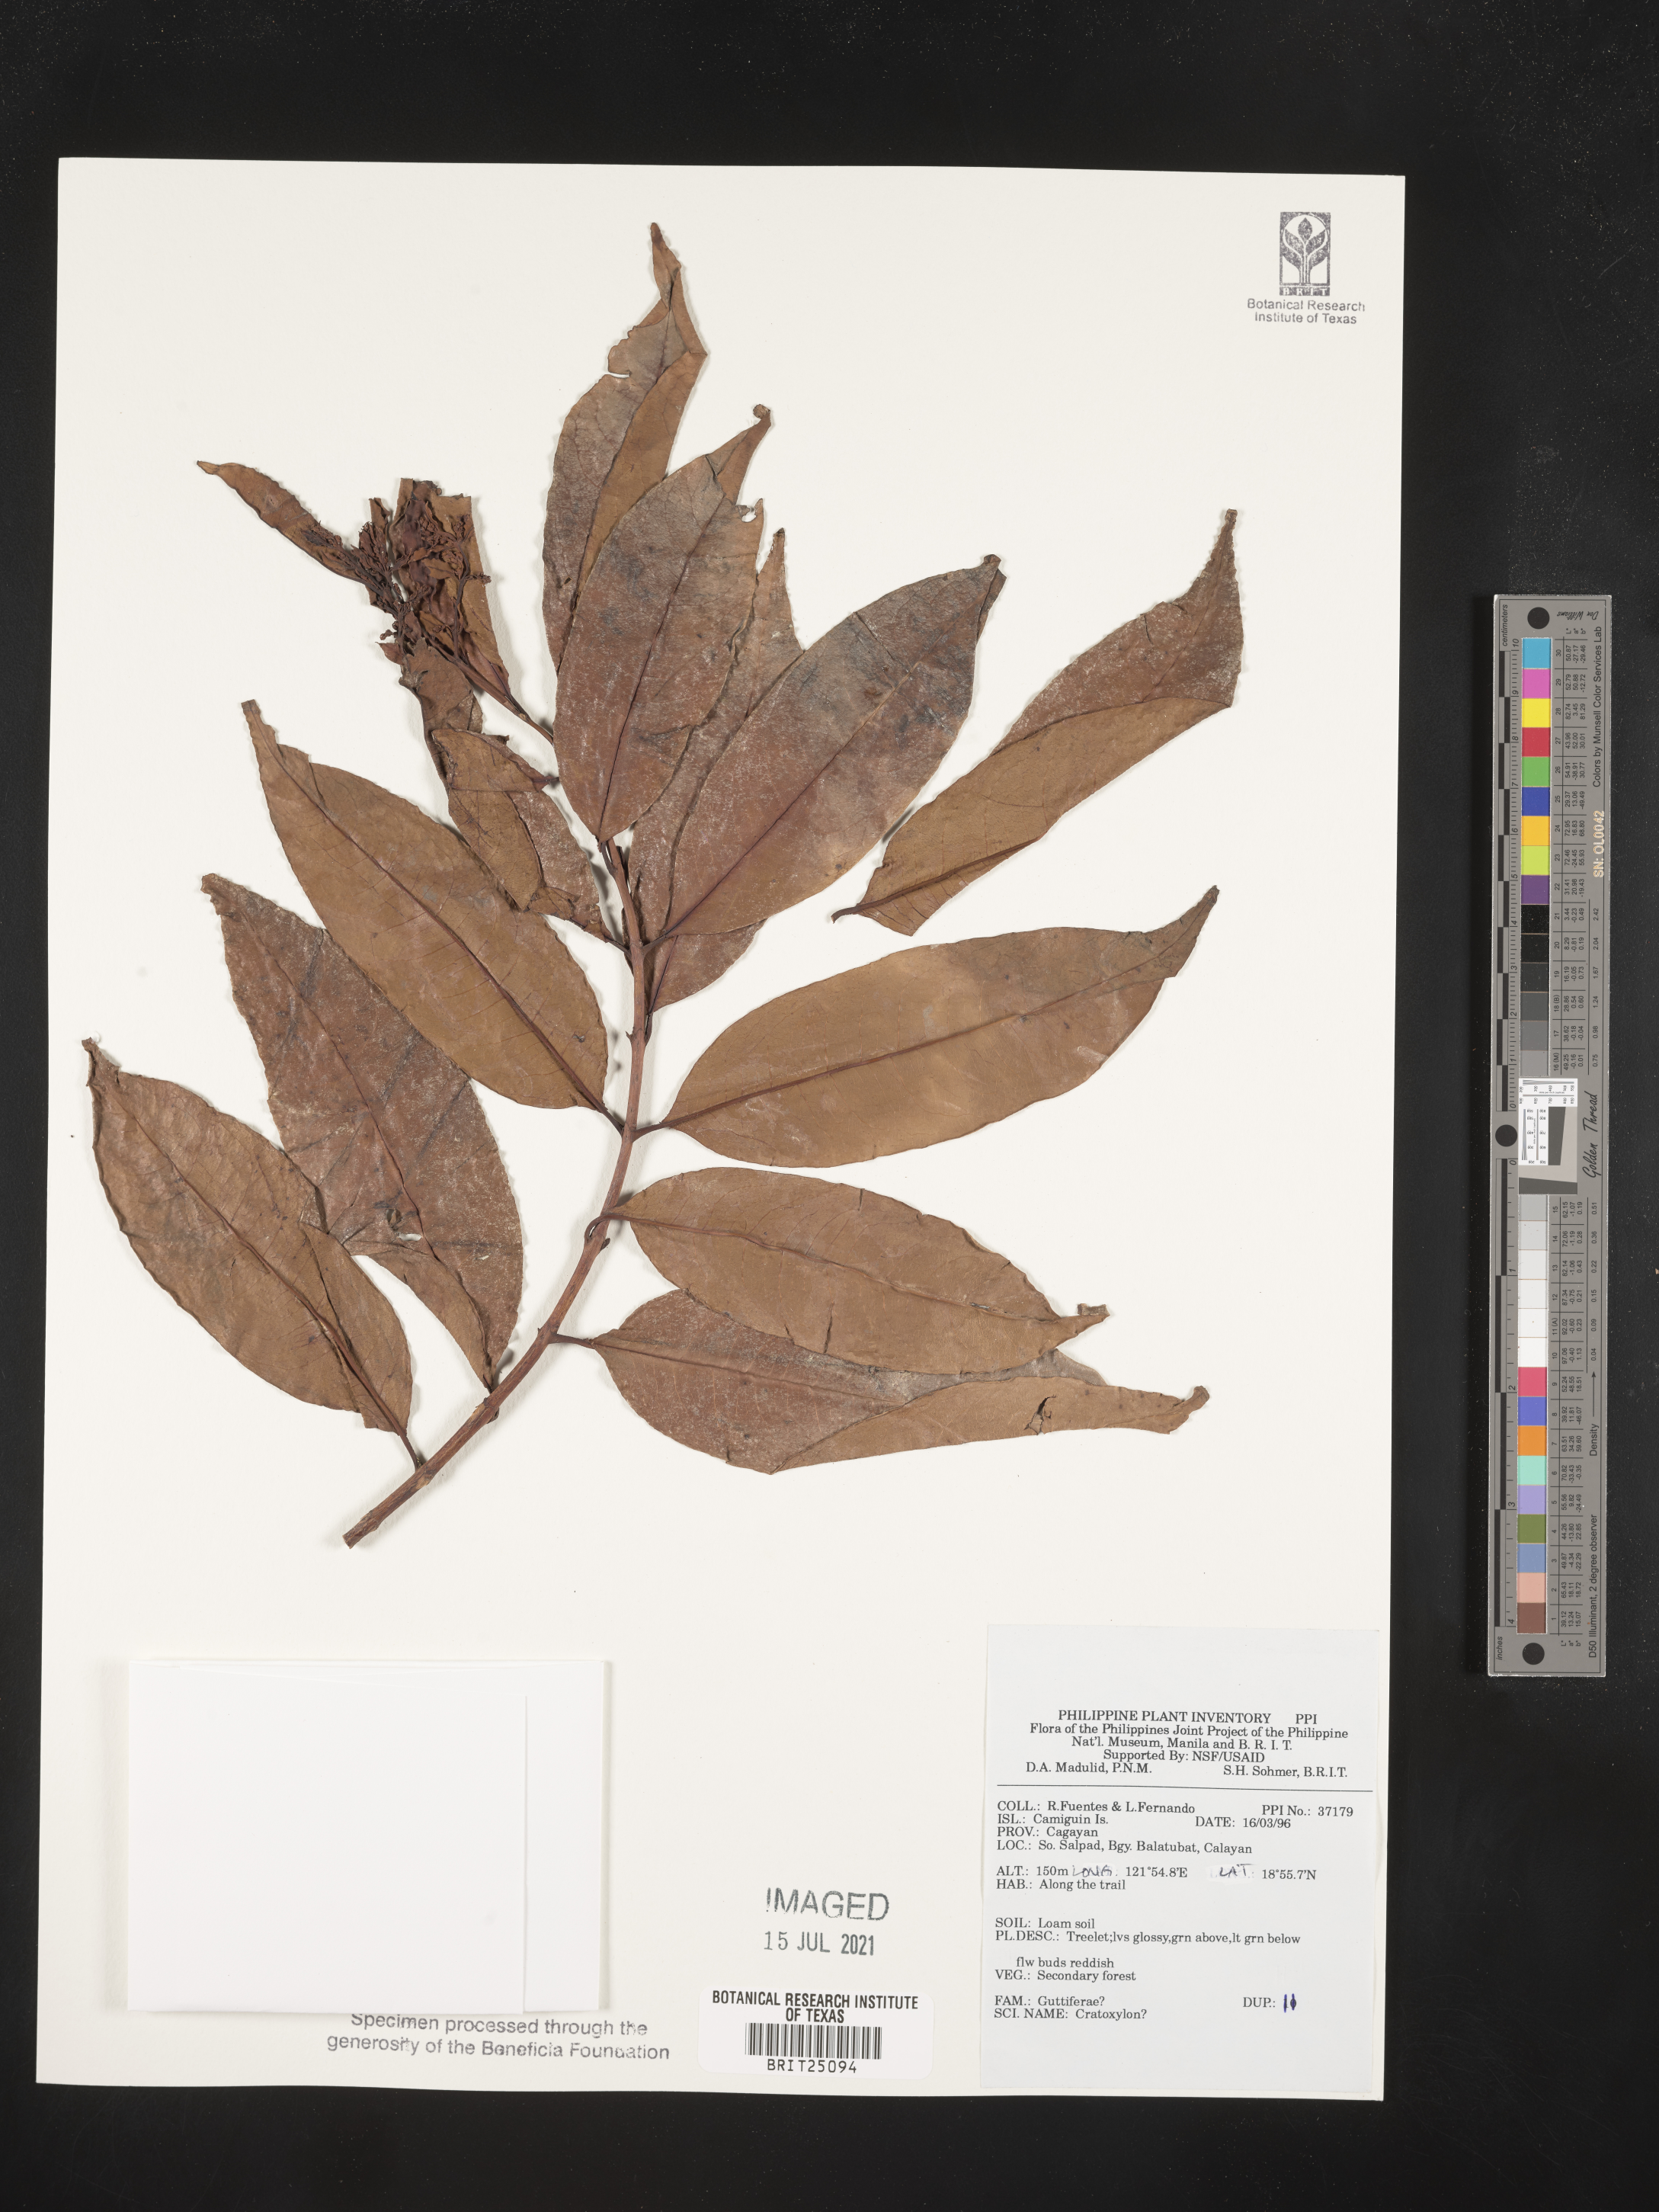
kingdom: Plantae
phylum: Tracheophyta
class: Magnoliopsida
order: Malpighiales
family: Hypericaceae
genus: Cratoxylum
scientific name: Cratoxylum
